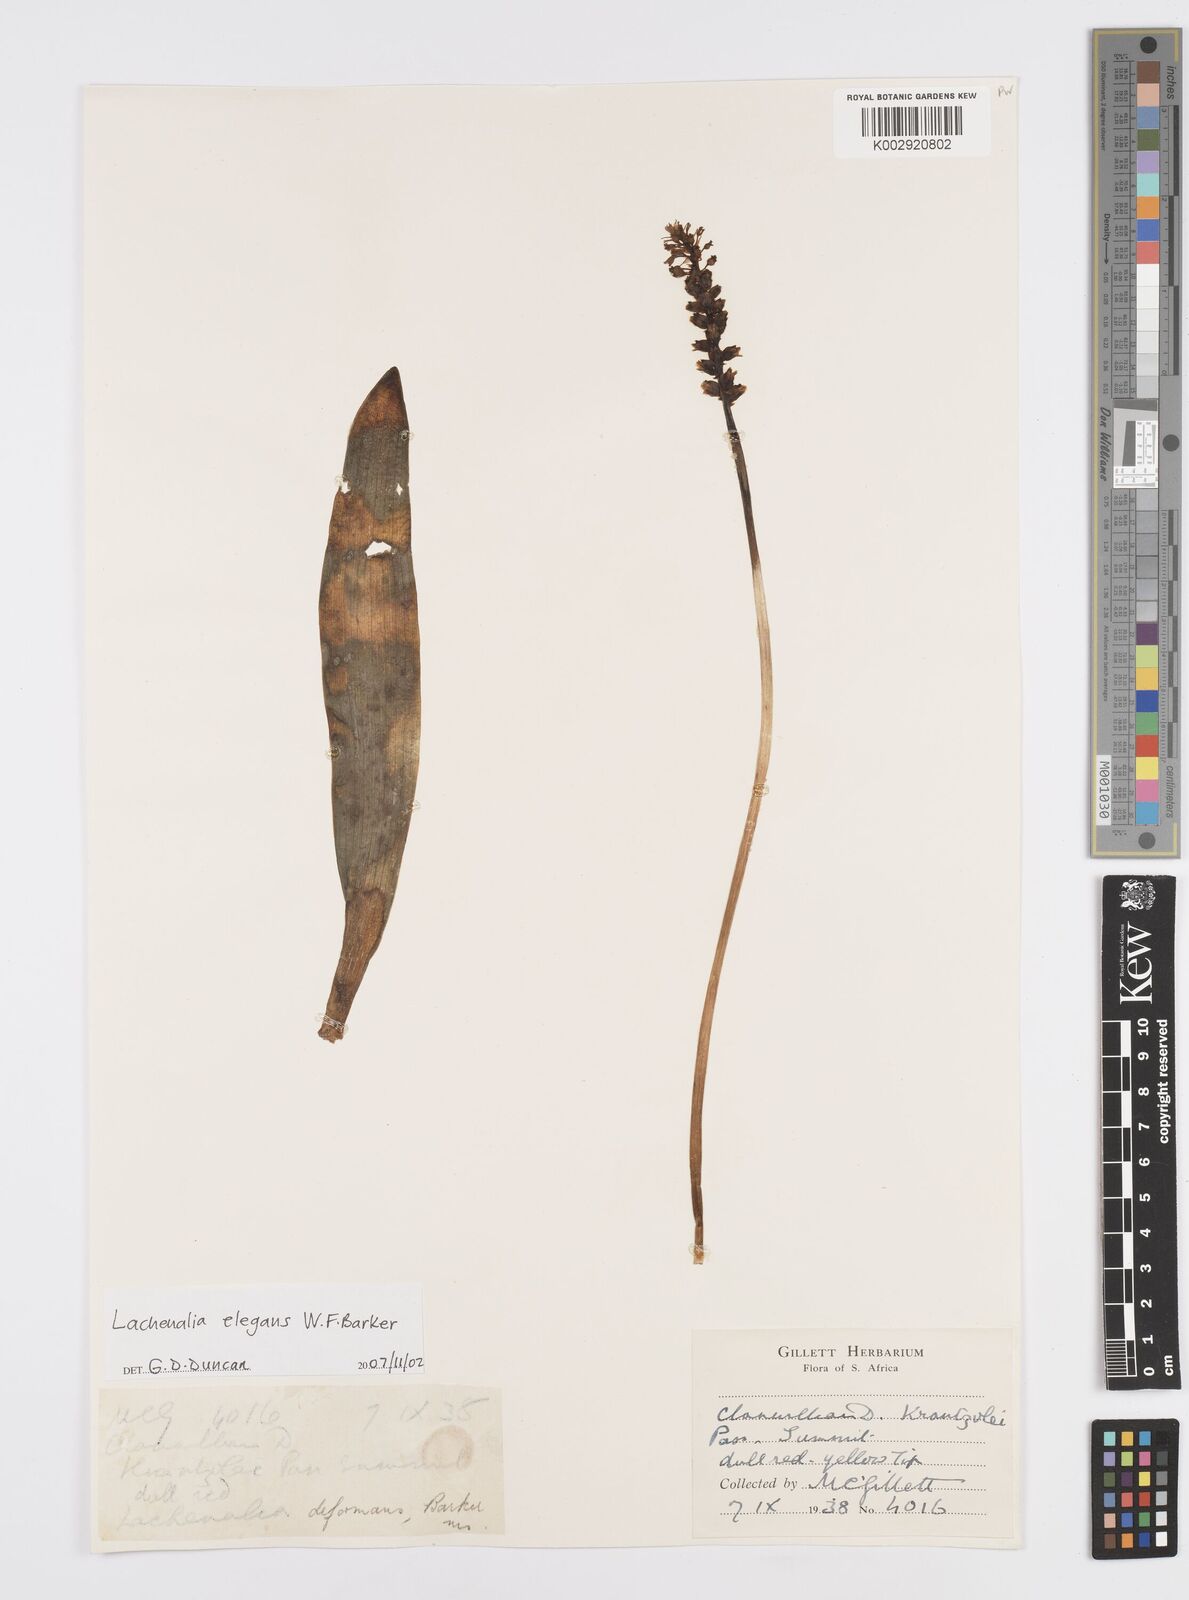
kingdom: Plantae
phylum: Tracheophyta
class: Liliopsida
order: Asparagales
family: Asparagaceae
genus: Lachenalia
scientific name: Lachenalia
